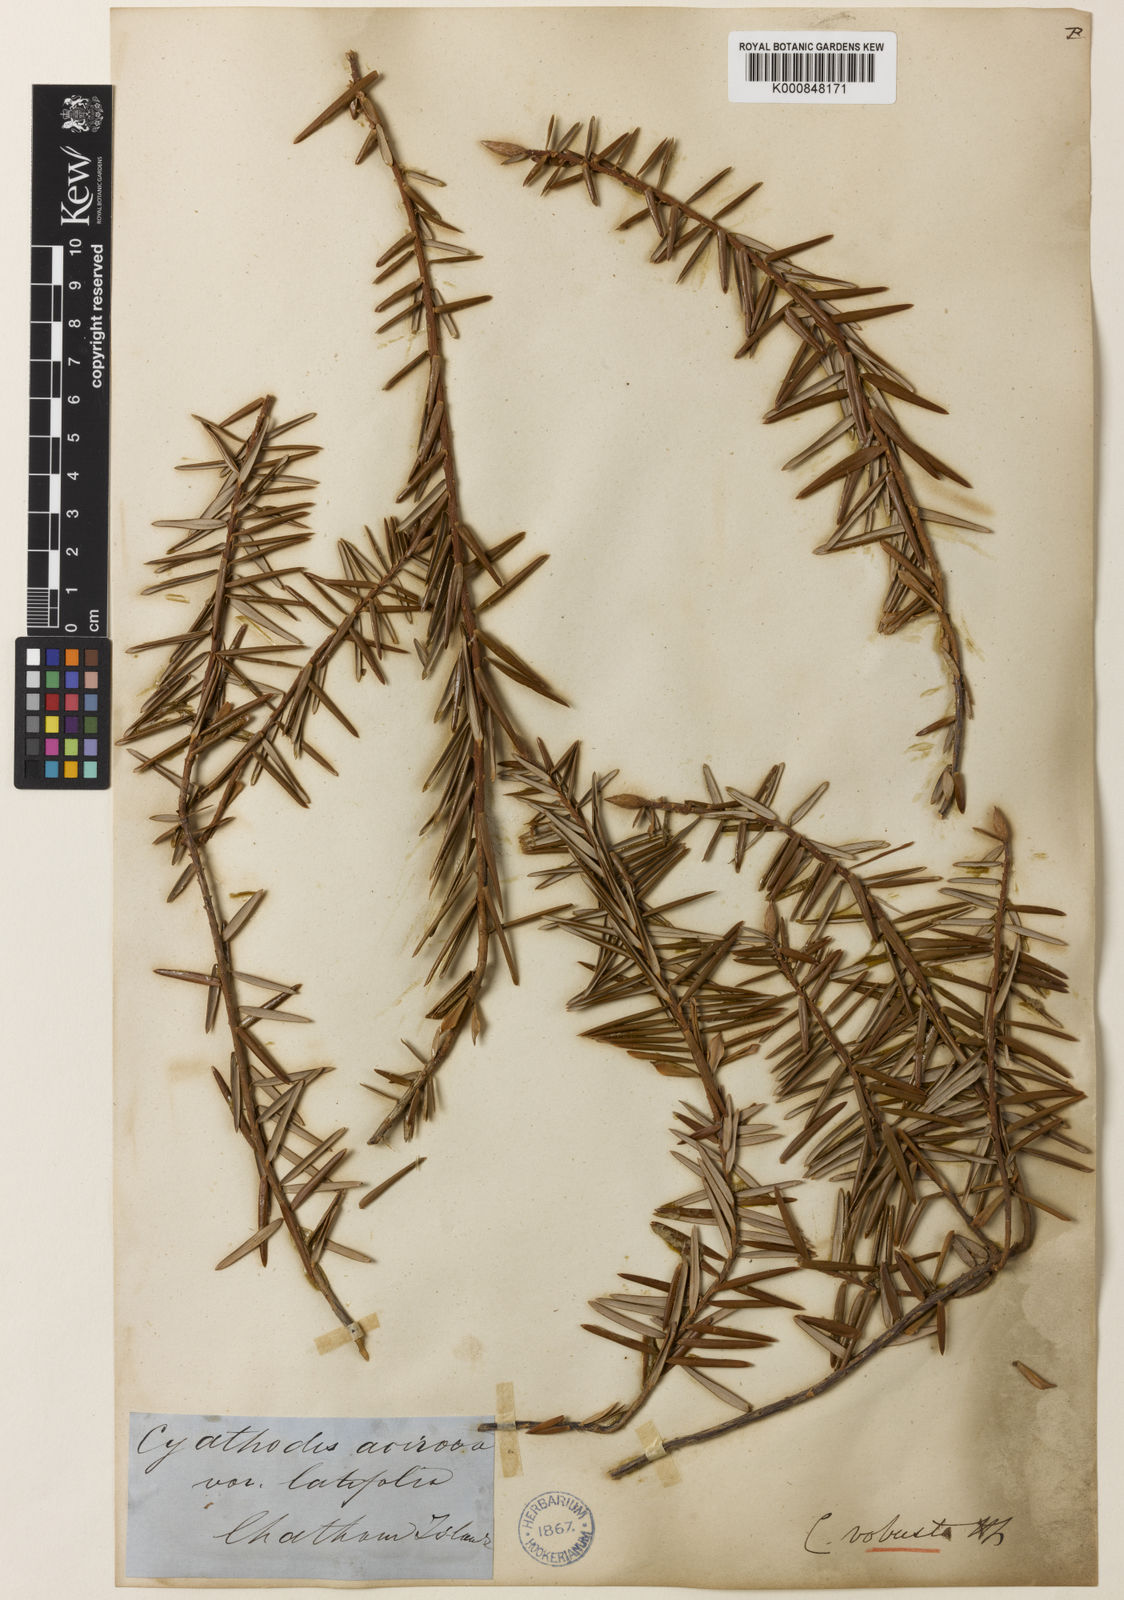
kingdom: Plantae
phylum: Tracheophyta
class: Magnoliopsida
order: Ericales
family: Ericaceae
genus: Leptecophylla
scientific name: Leptecophylla robusta
